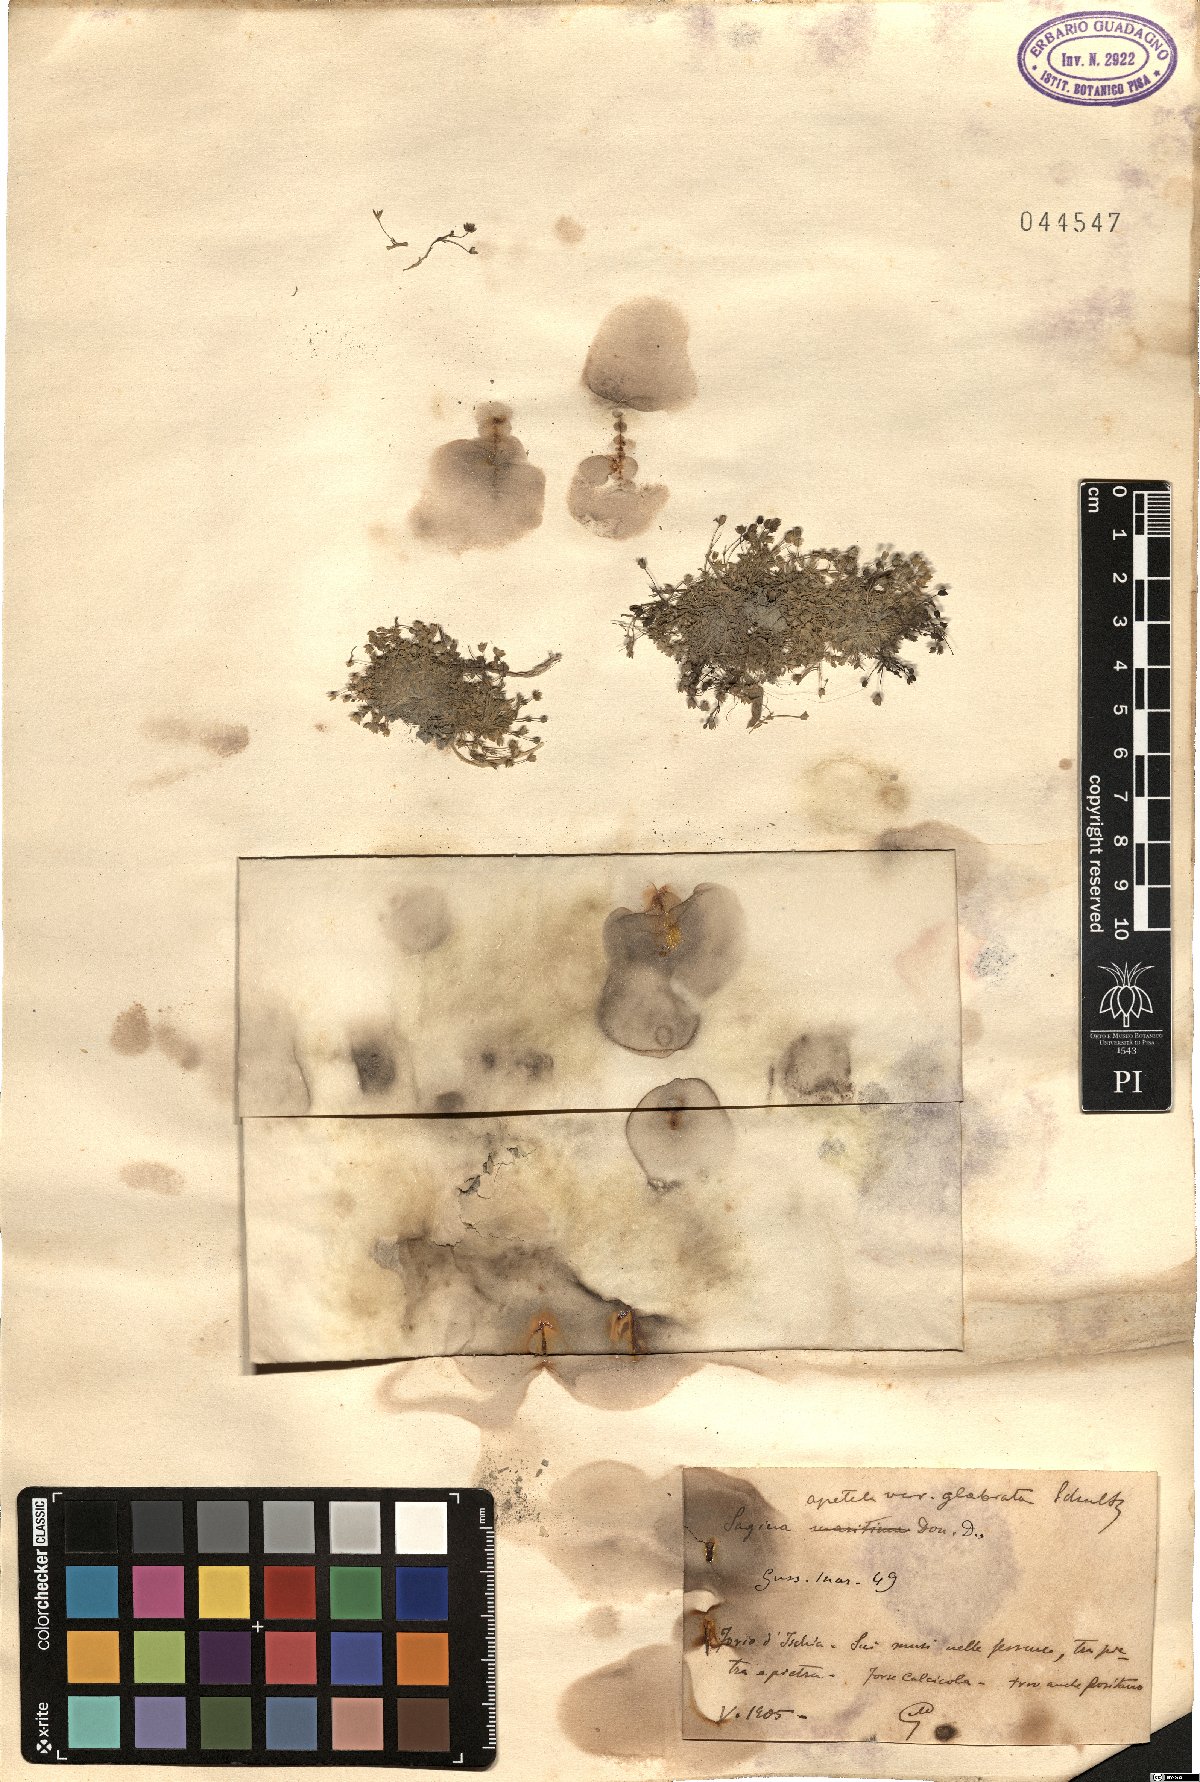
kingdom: Plantae
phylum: Tracheophyta
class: Magnoliopsida
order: Caryophyllales
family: Caryophyllaceae
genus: Sagina
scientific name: Sagina apetala
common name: Annual pearlwort
